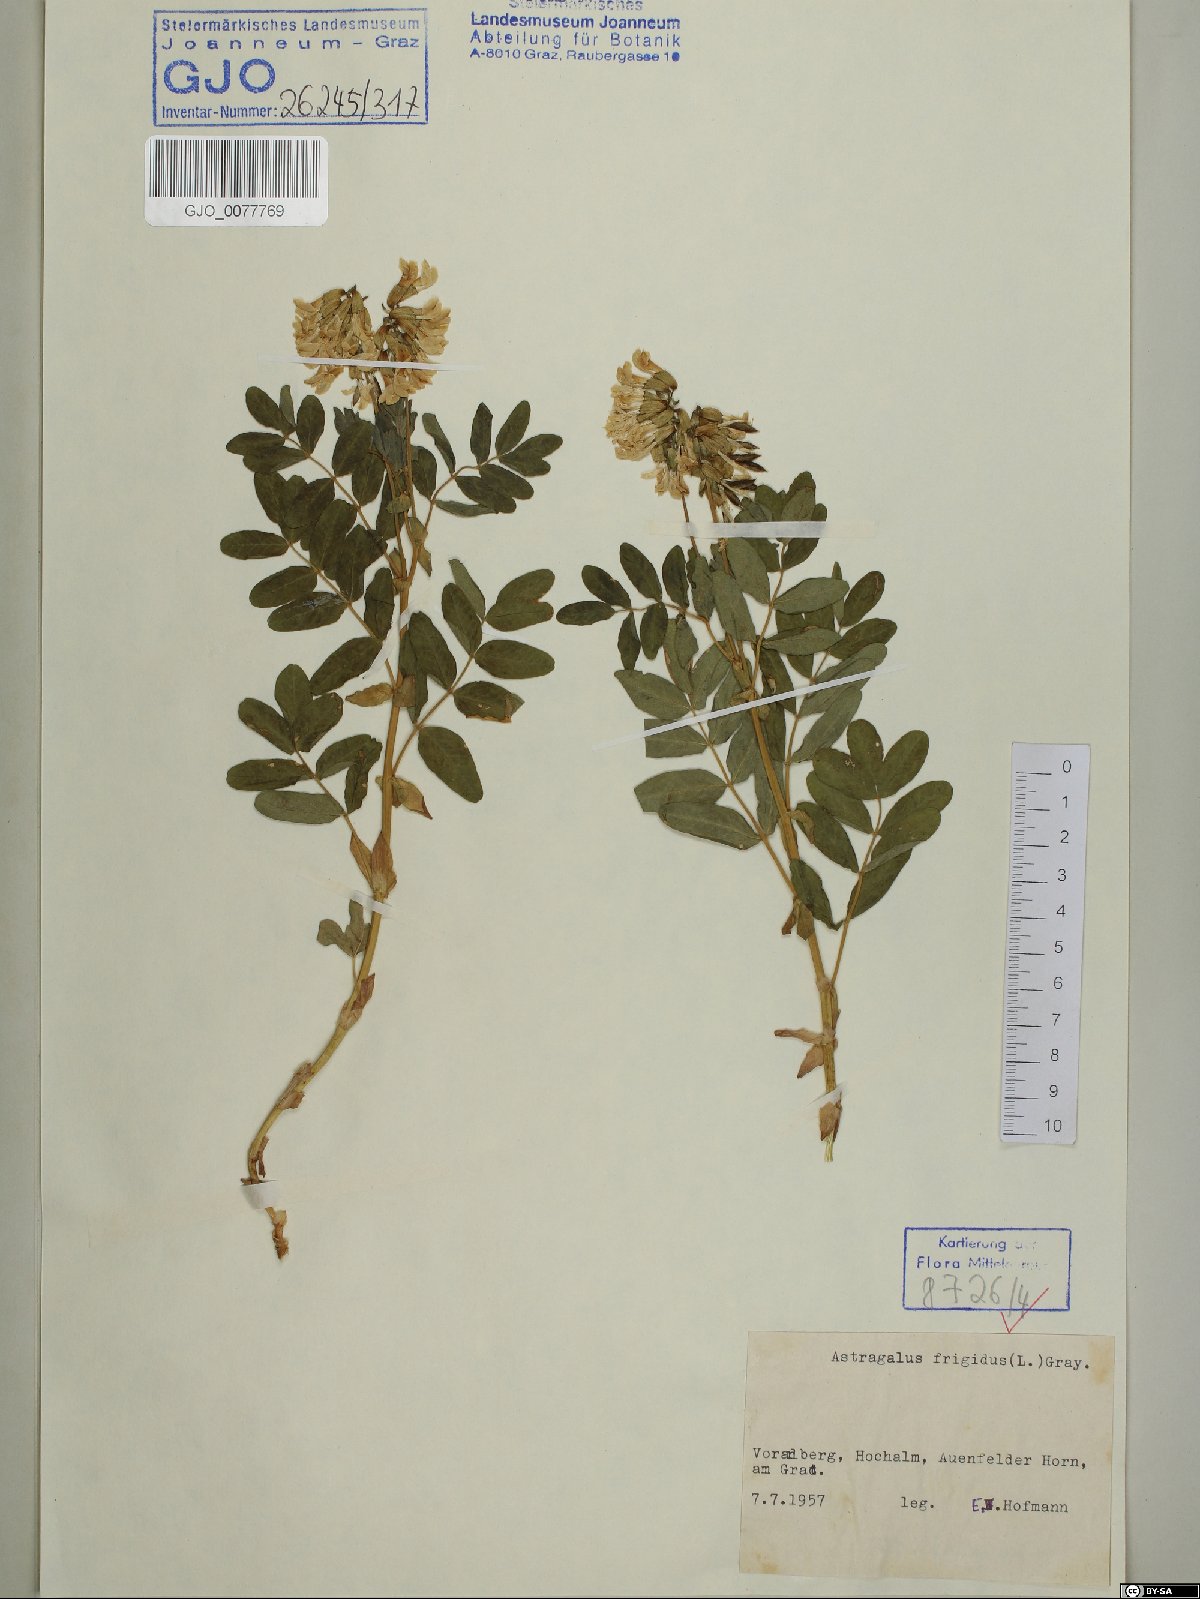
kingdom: Plantae
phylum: Tracheophyta
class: Magnoliopsida
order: Fabales
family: Fabaceae
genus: Astragalus
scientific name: Astragalus frigidus
